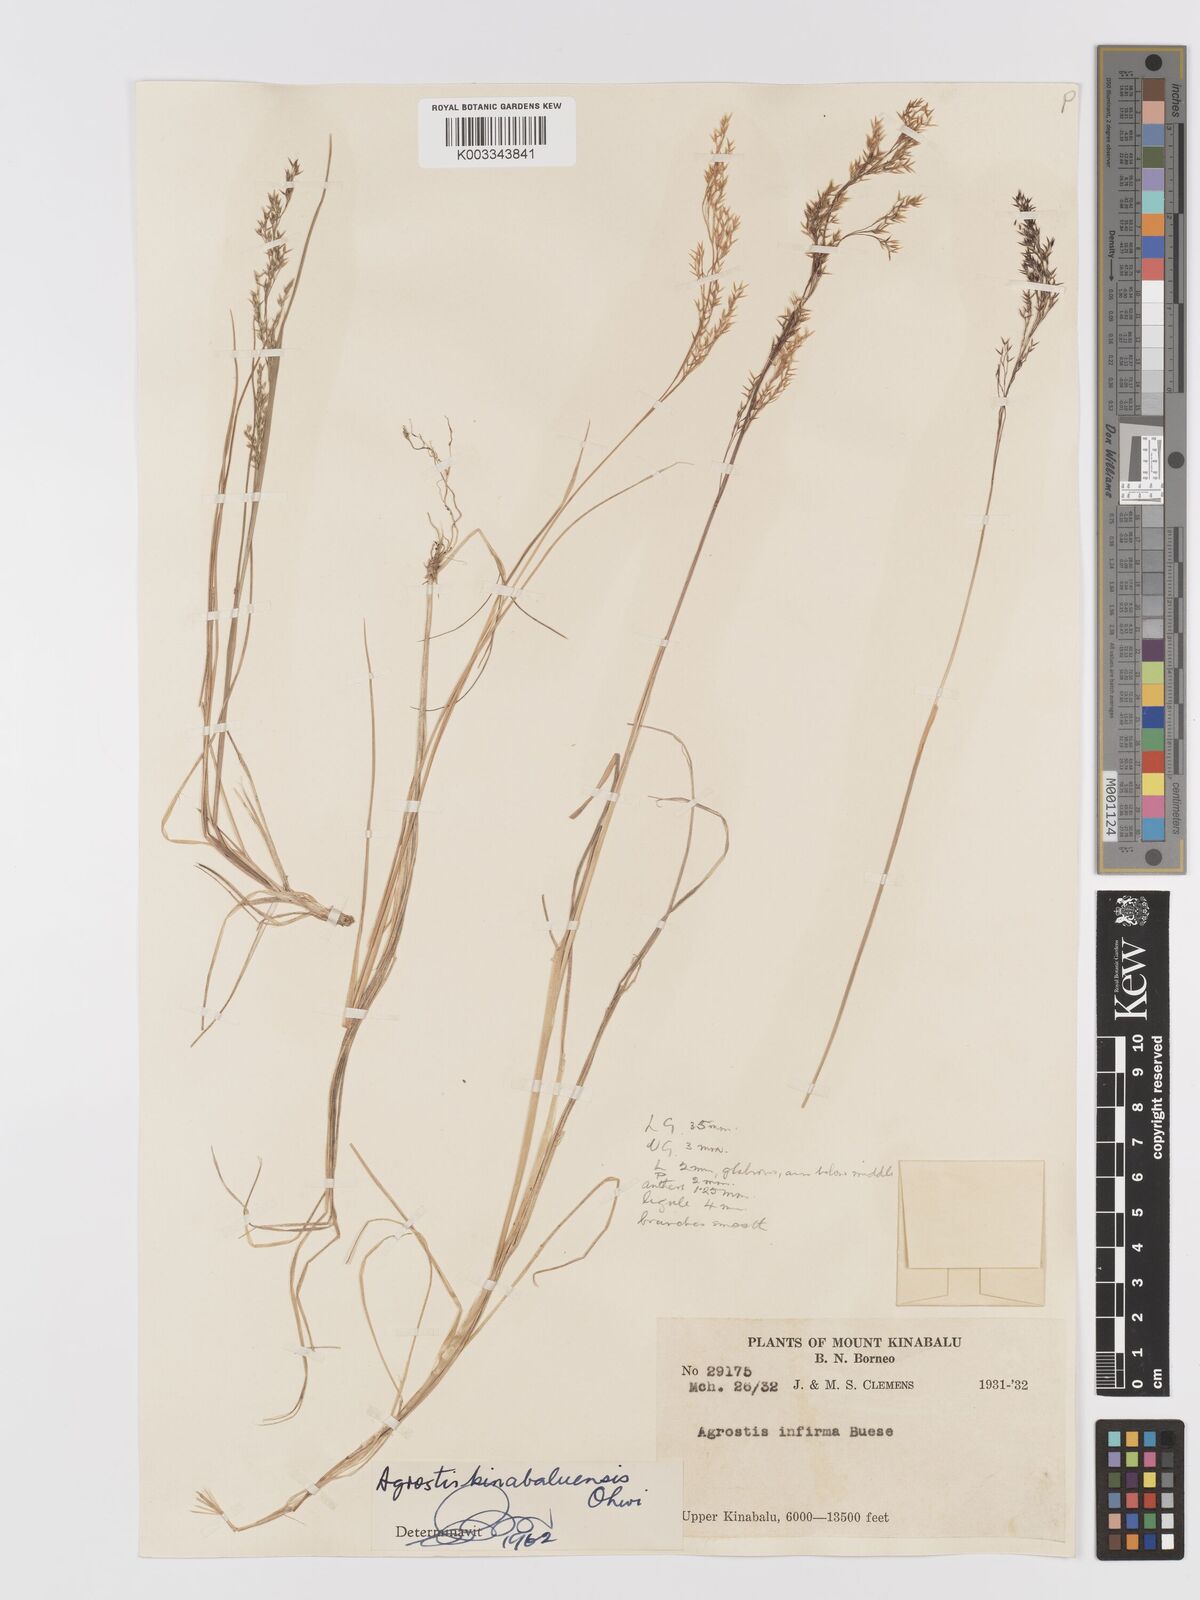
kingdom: Plantae
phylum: Tracheophyta
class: Liliopsida
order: Poales
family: Poaceae
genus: Agrostis
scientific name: Agrostis infirma
